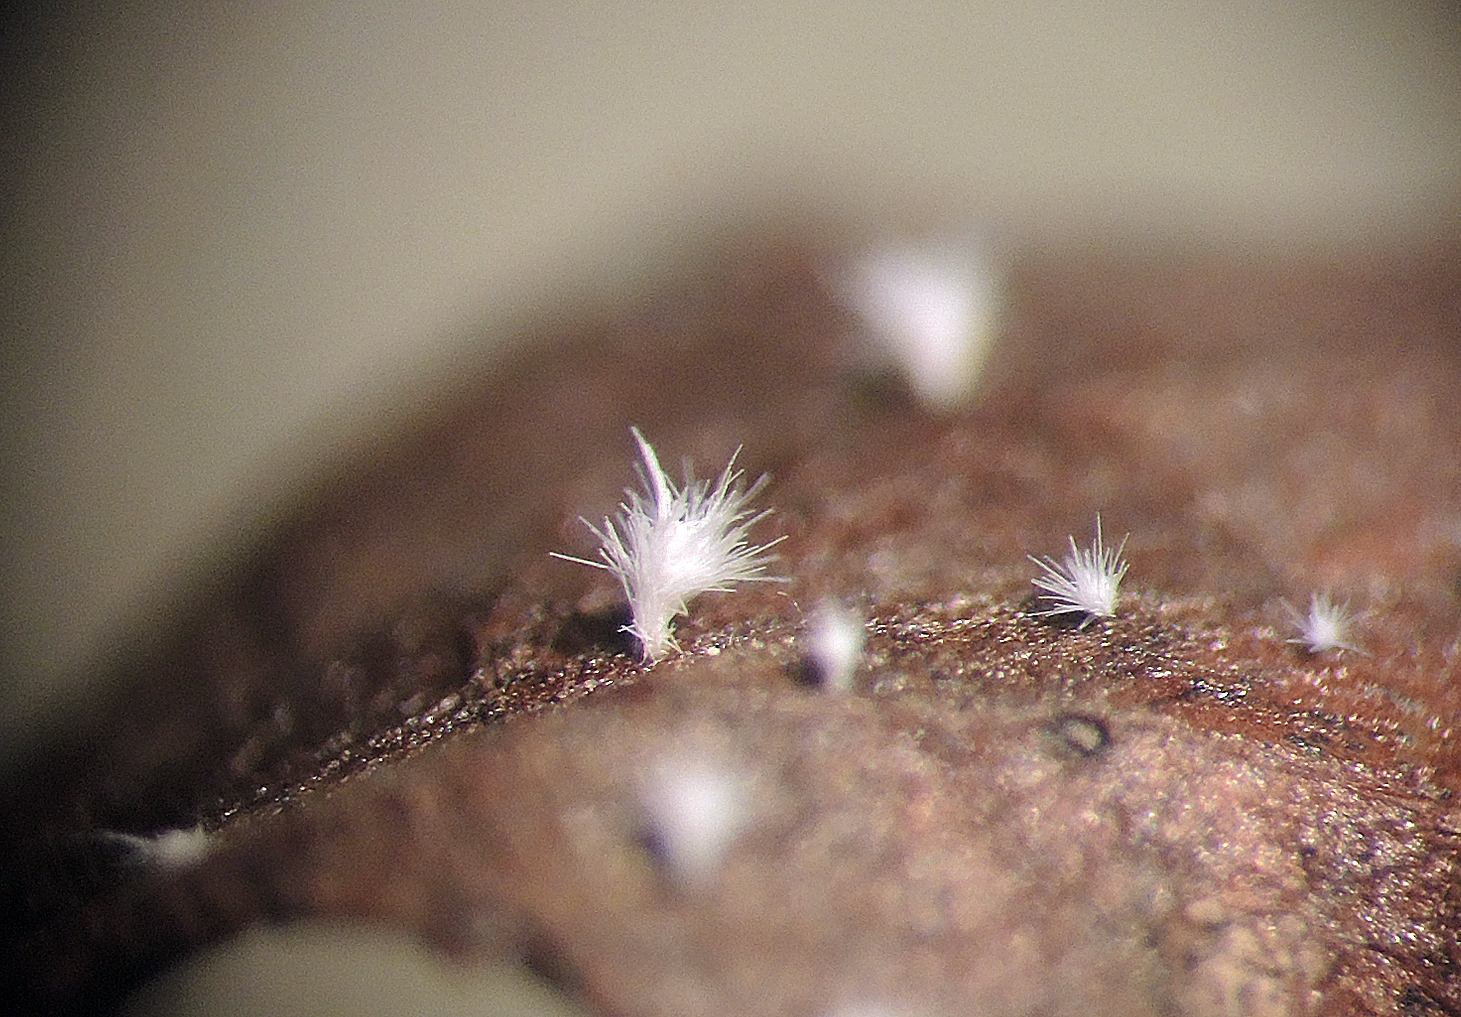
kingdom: Fungi
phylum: Basidiomycota
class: Agaricomycetes
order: Agaricales
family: Niaceae
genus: Flagelloscypha
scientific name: Flagelloscypha niveola
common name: pjusket hængeskål
